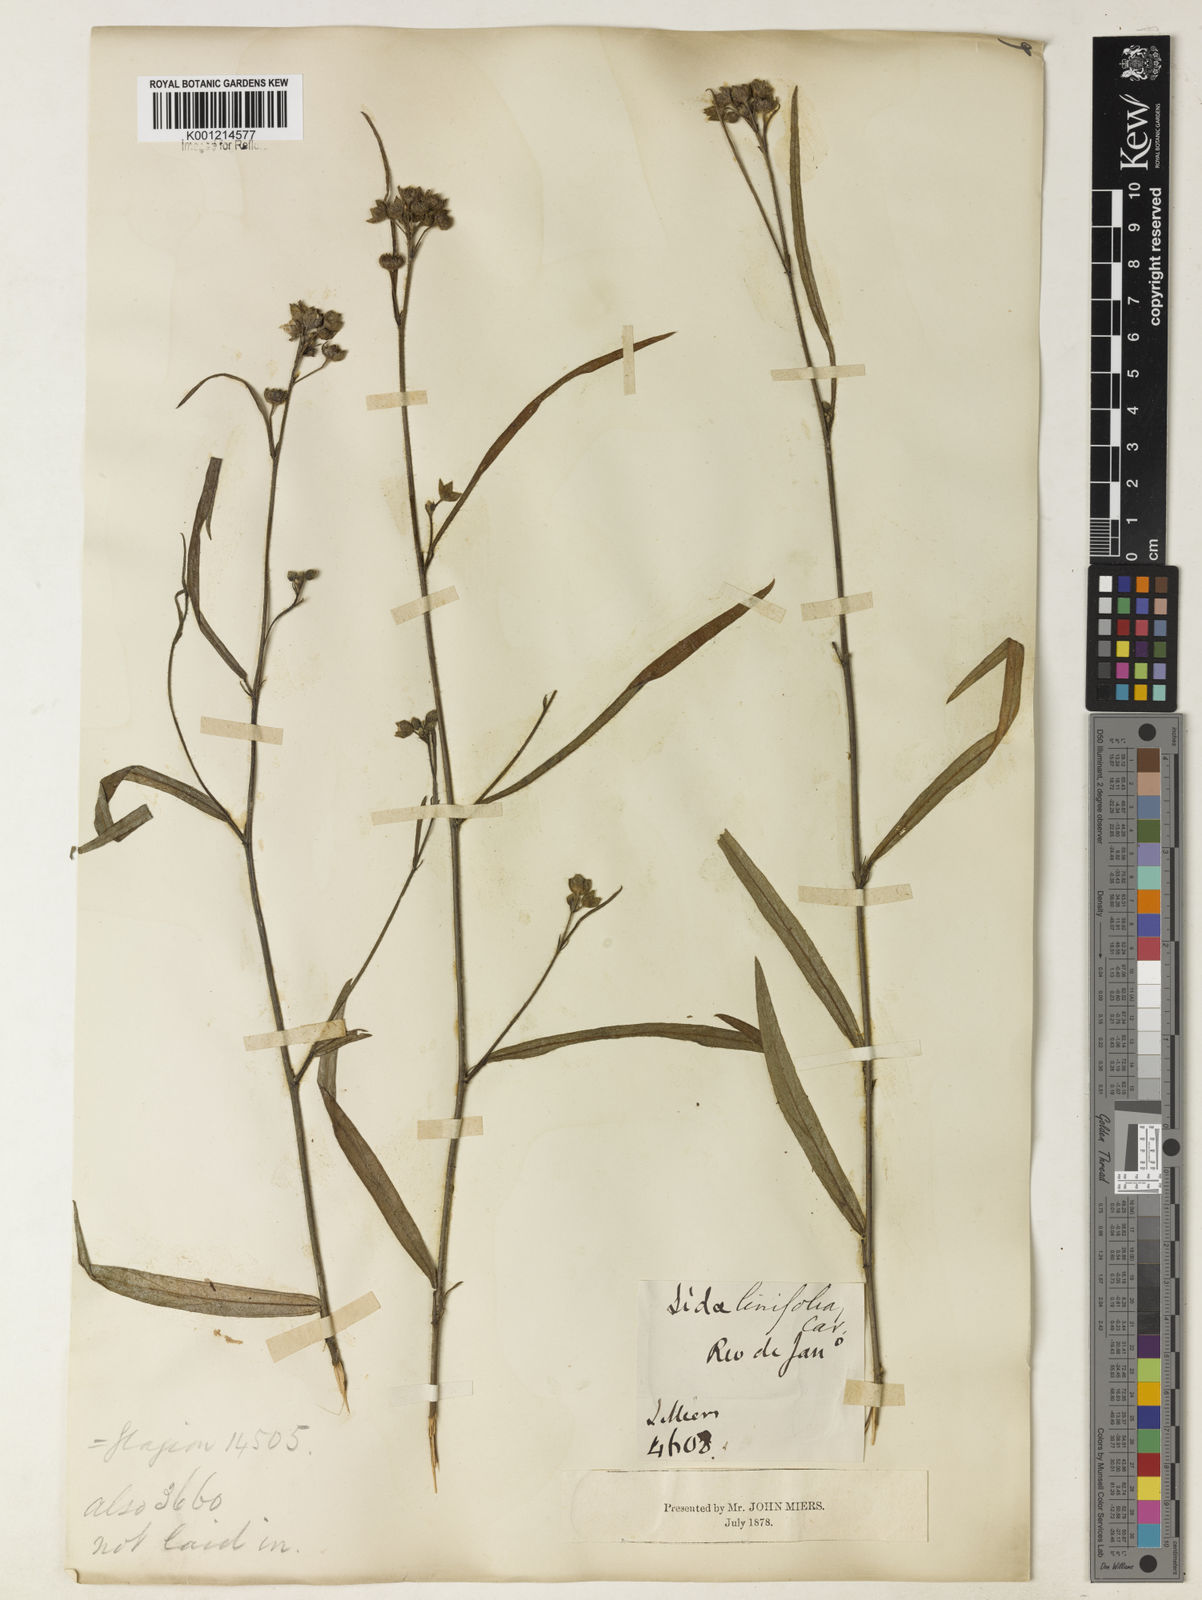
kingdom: Plantae
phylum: Tracheophyta
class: Magnoliopsida
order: Malvales
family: Malvaceae
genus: Sida
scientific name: Sida linifolia
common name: Flaxleaf fanpetals
